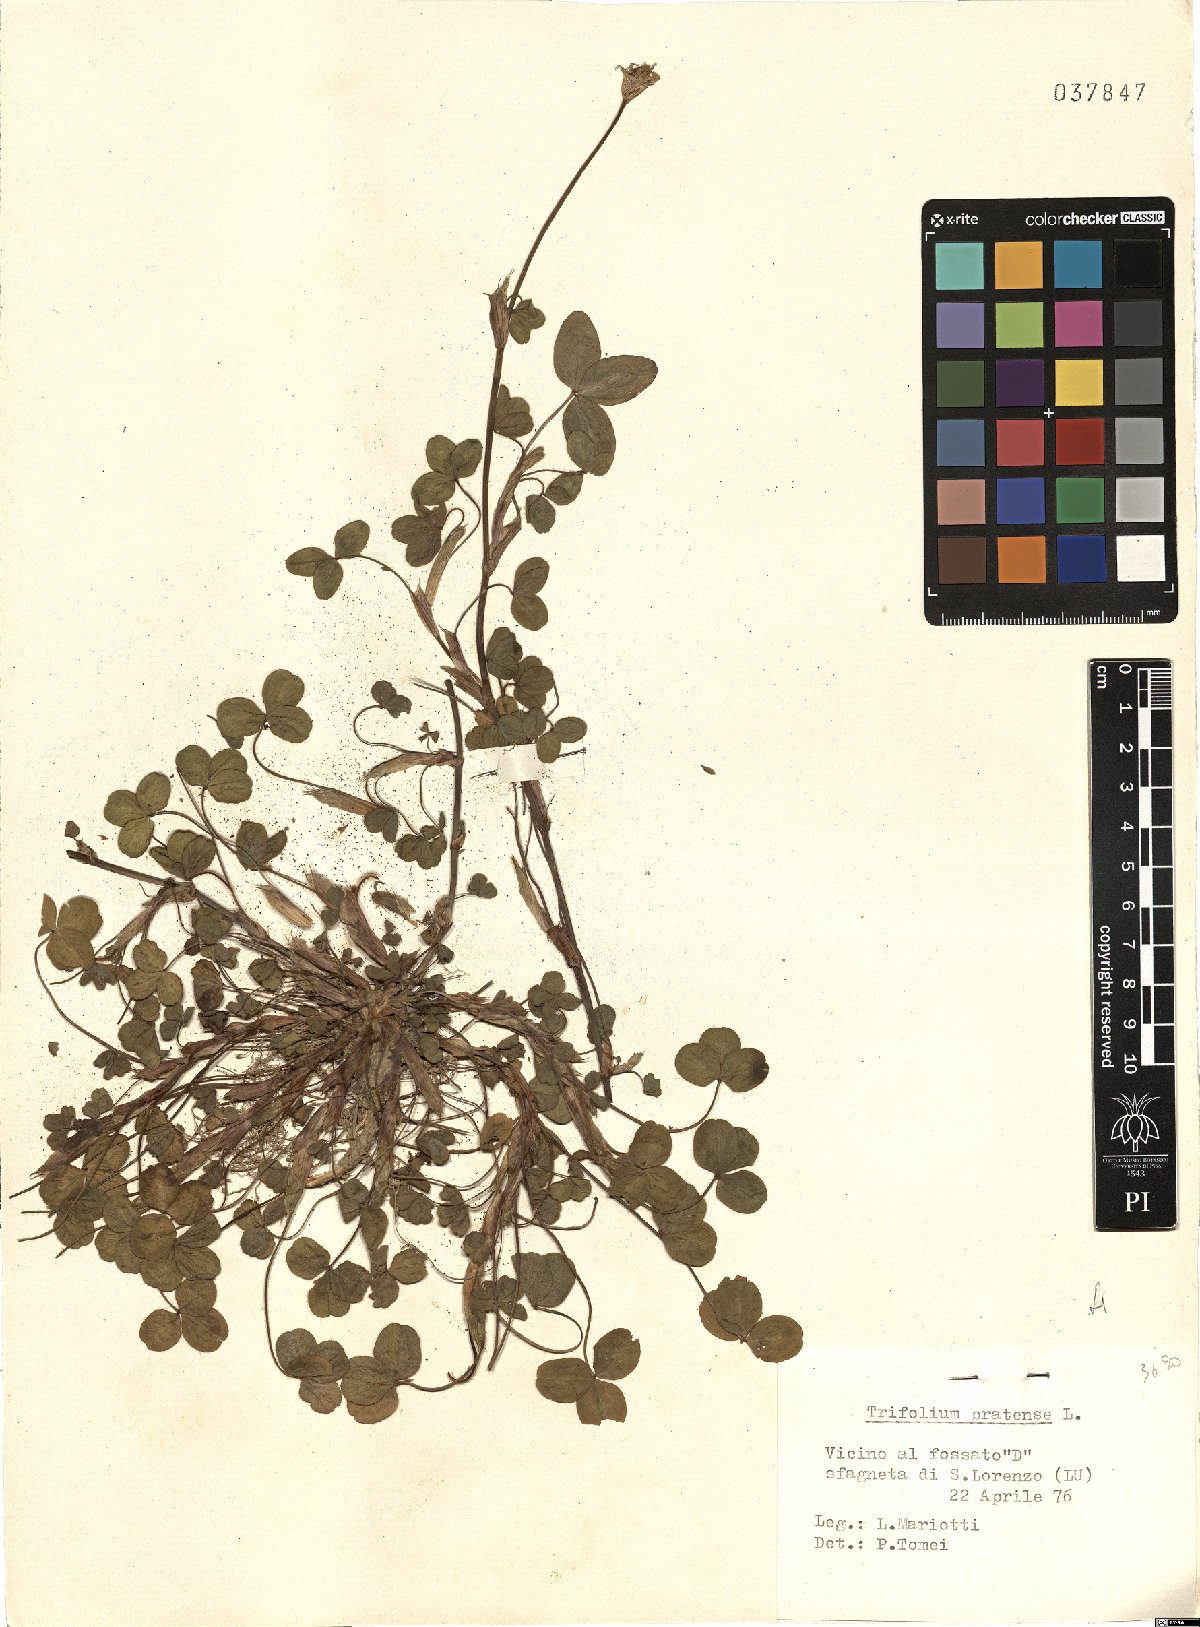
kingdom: Plantae
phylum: Tracheophyta
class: Magnoliopsida
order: Fabales
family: Fabaceae
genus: Trifolium
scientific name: Trifolium pratense
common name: Red clover
